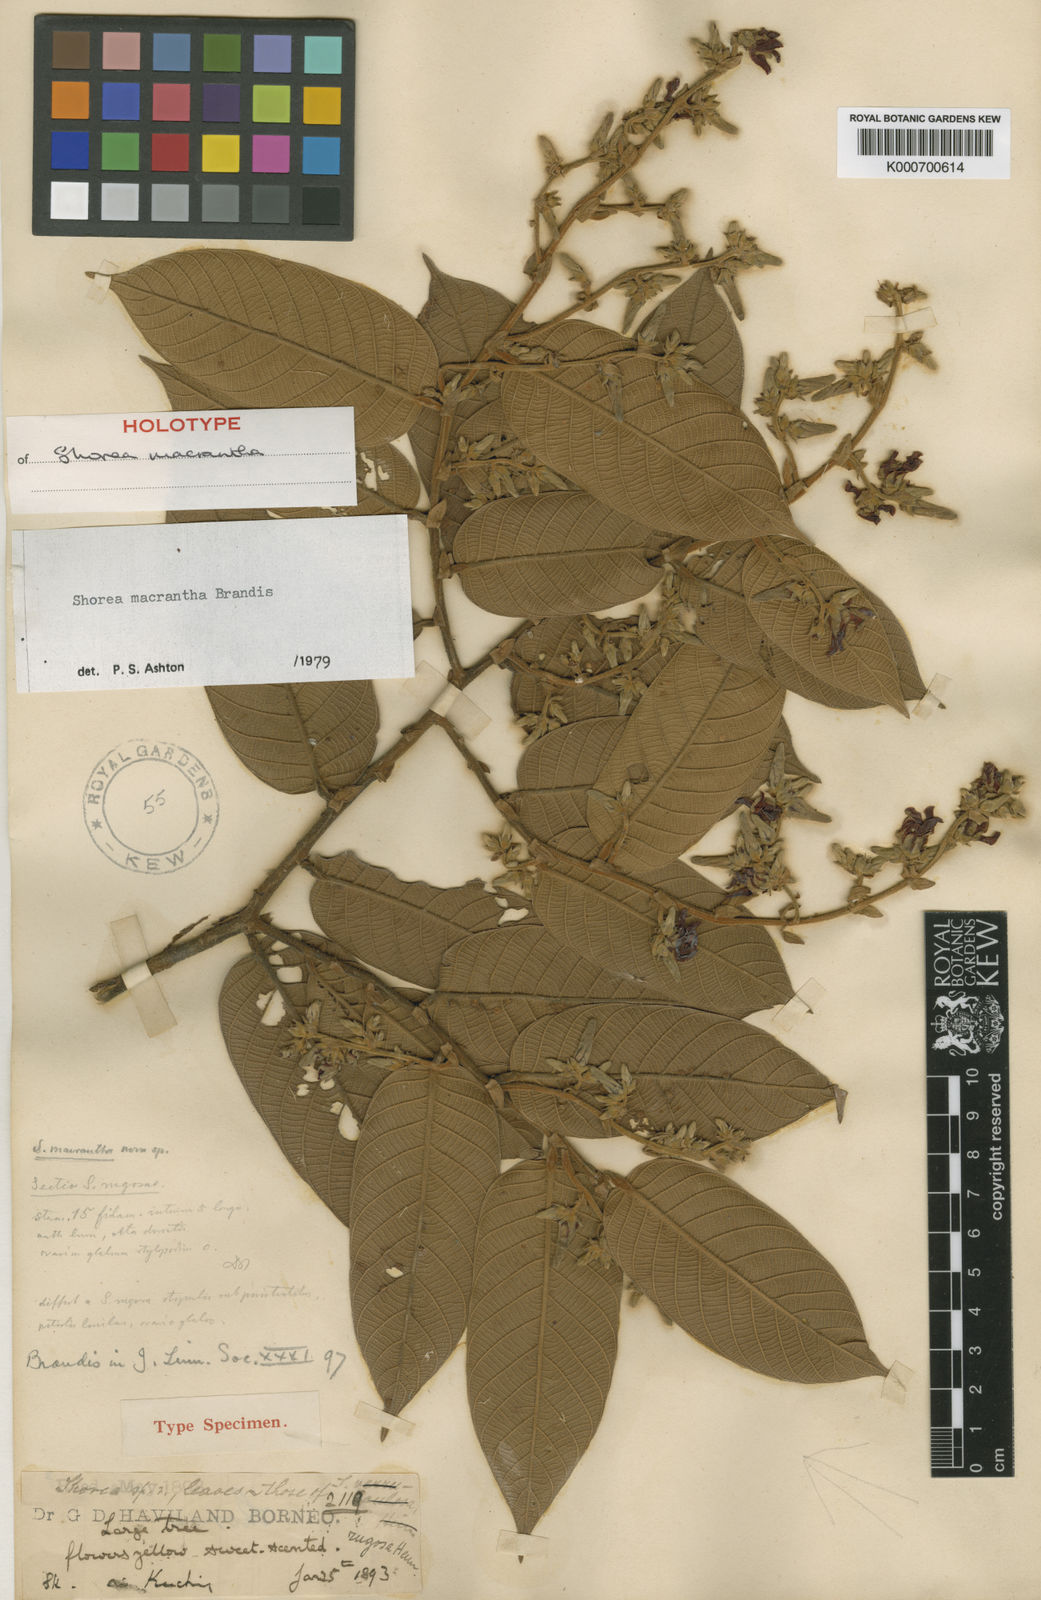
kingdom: Plantae
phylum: Tracheophyta
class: Magnoliopsida
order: Malvales
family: Dipterocarpaceae
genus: Shorea
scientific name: Shorea macrantha
